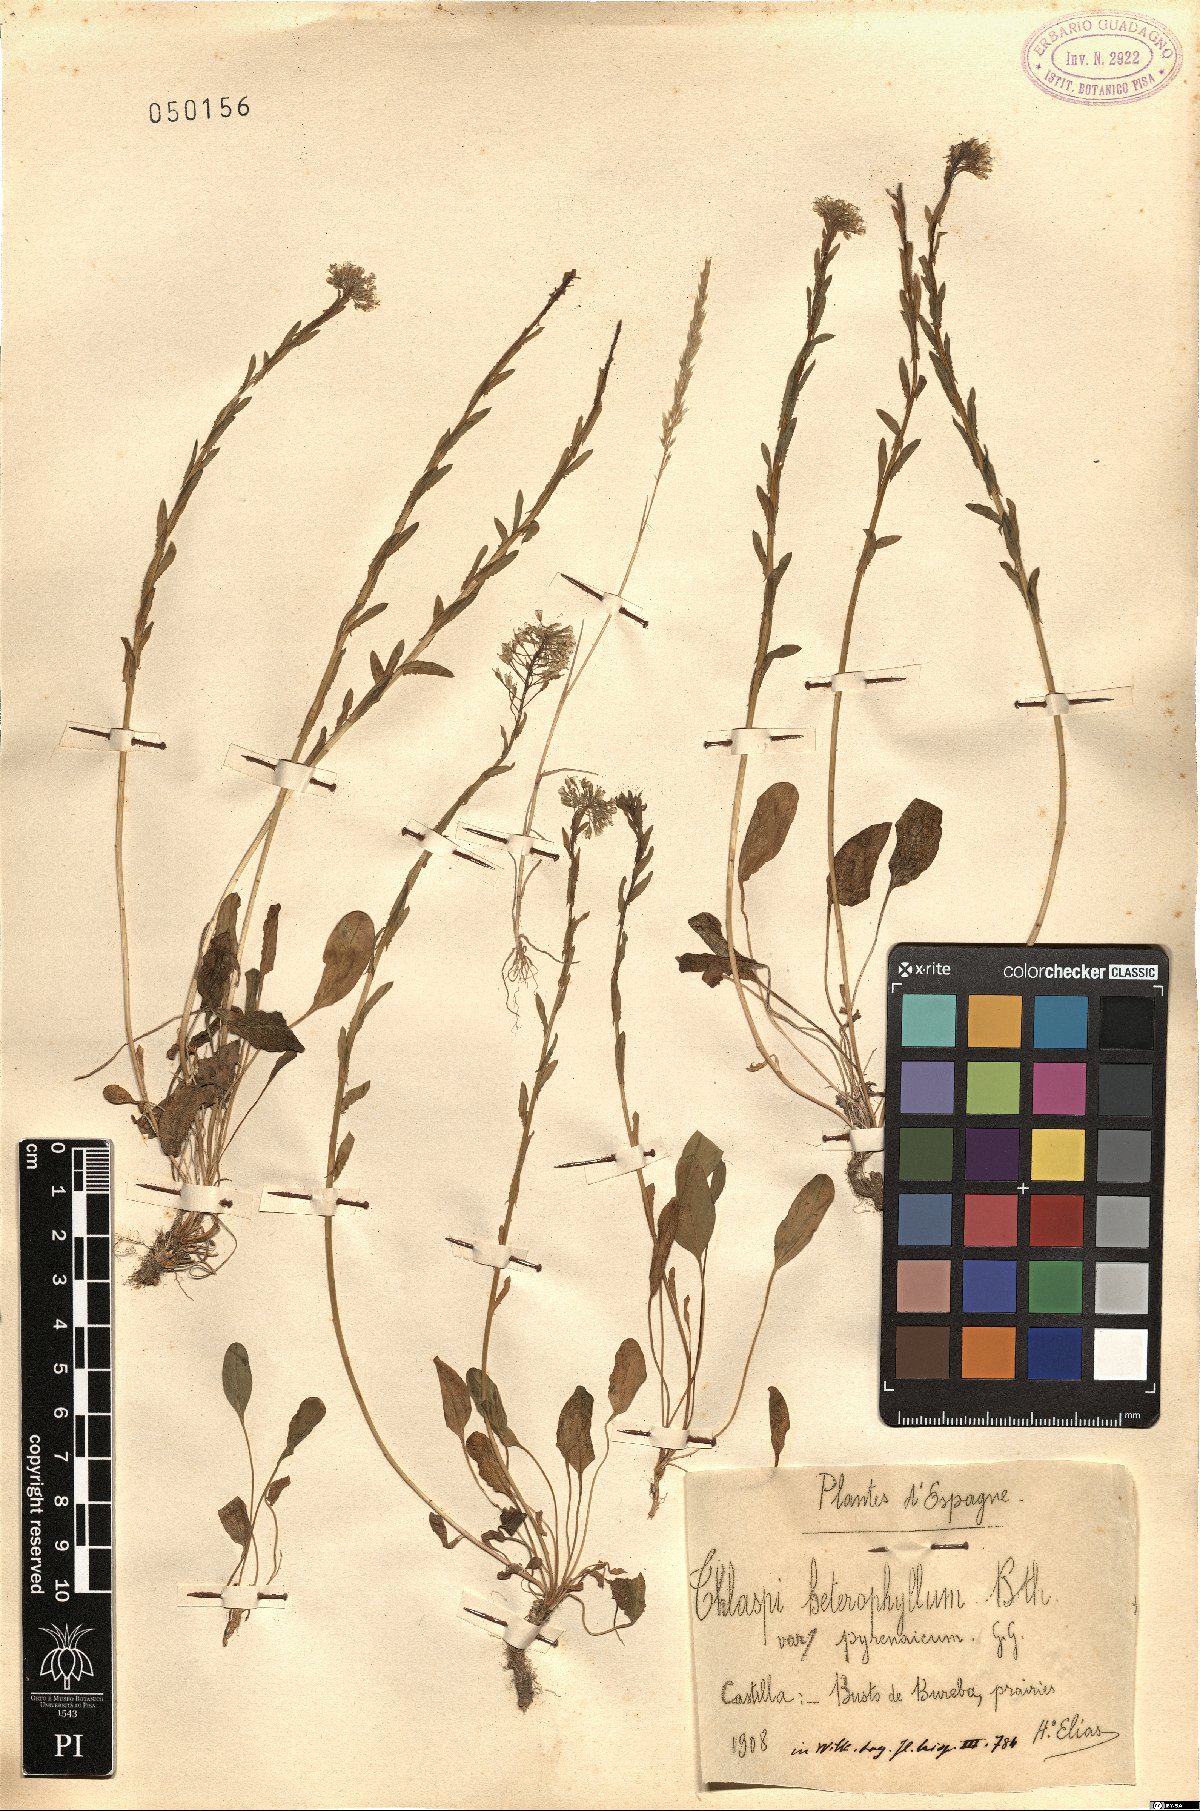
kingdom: Plantae
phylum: Tracheophyta
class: Magnoliopsida
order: Brassicales
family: Brassicaceae
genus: Lepidium
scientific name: Lepidium heterophyllum
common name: Smith's pepperwort
